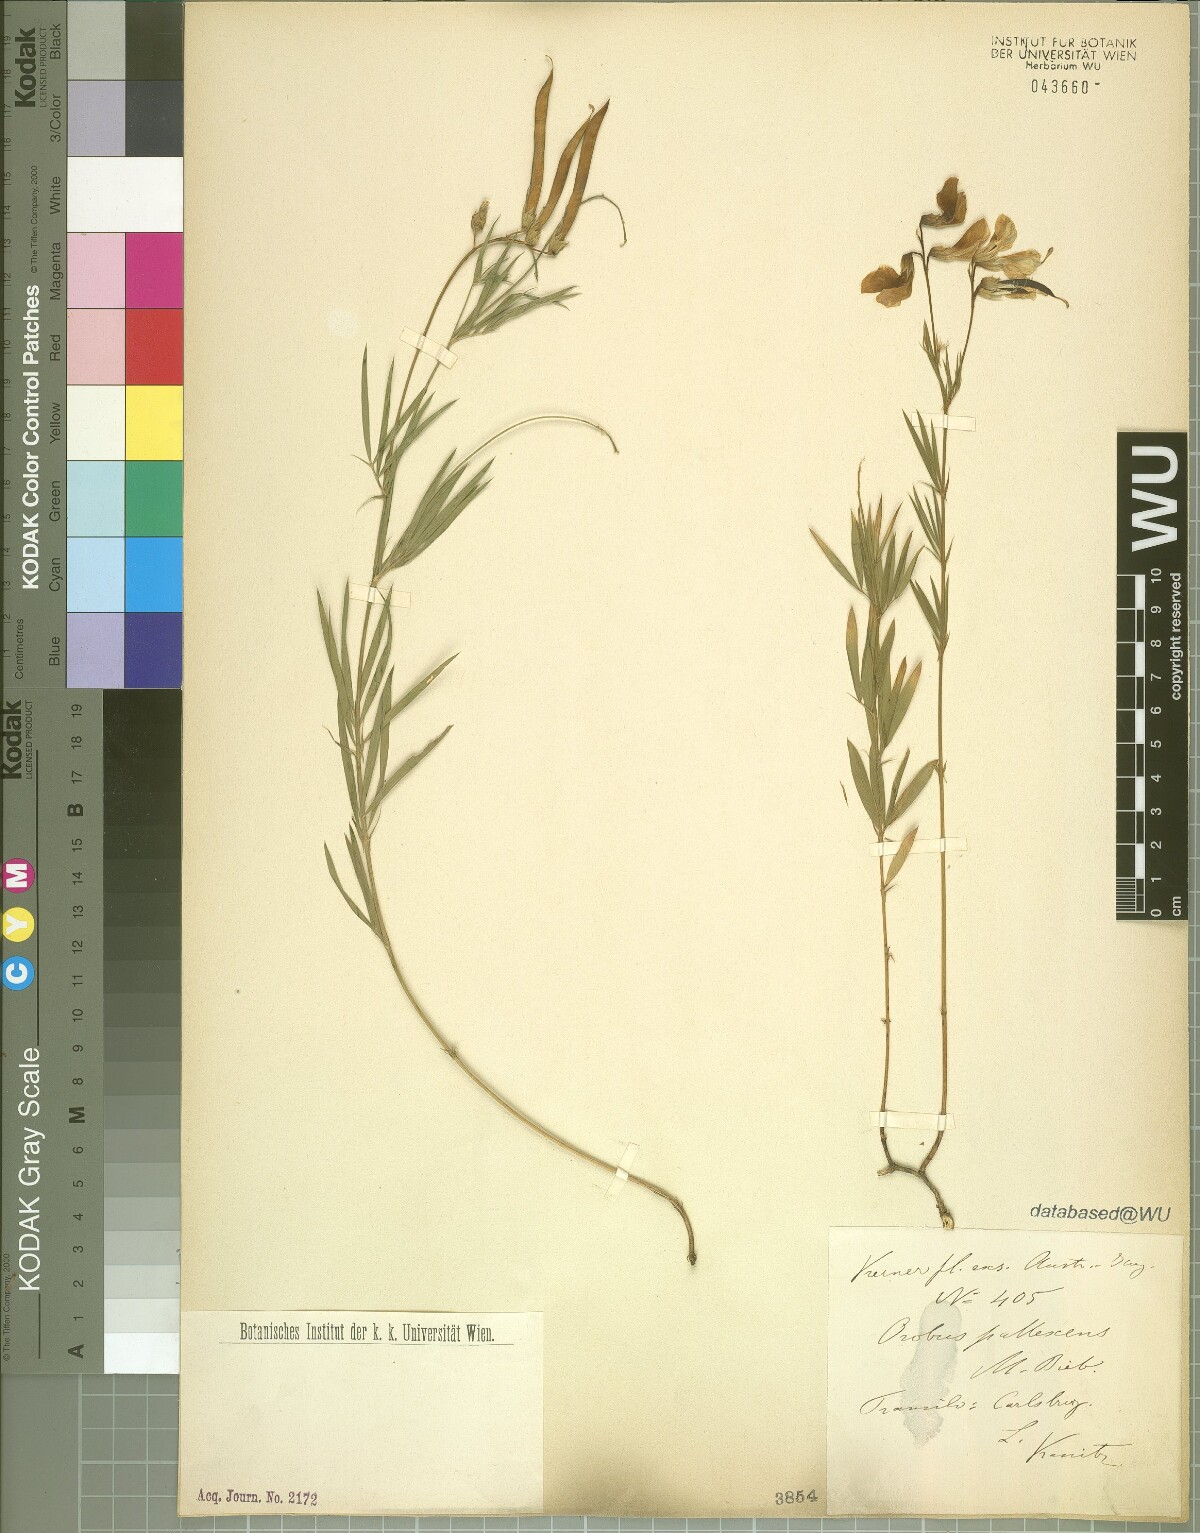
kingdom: Plantae
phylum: Tracheophyta
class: Magnoliopsida
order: Fabales
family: Fabaceae
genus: Lathyrus
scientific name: Lathyrus pallescens
